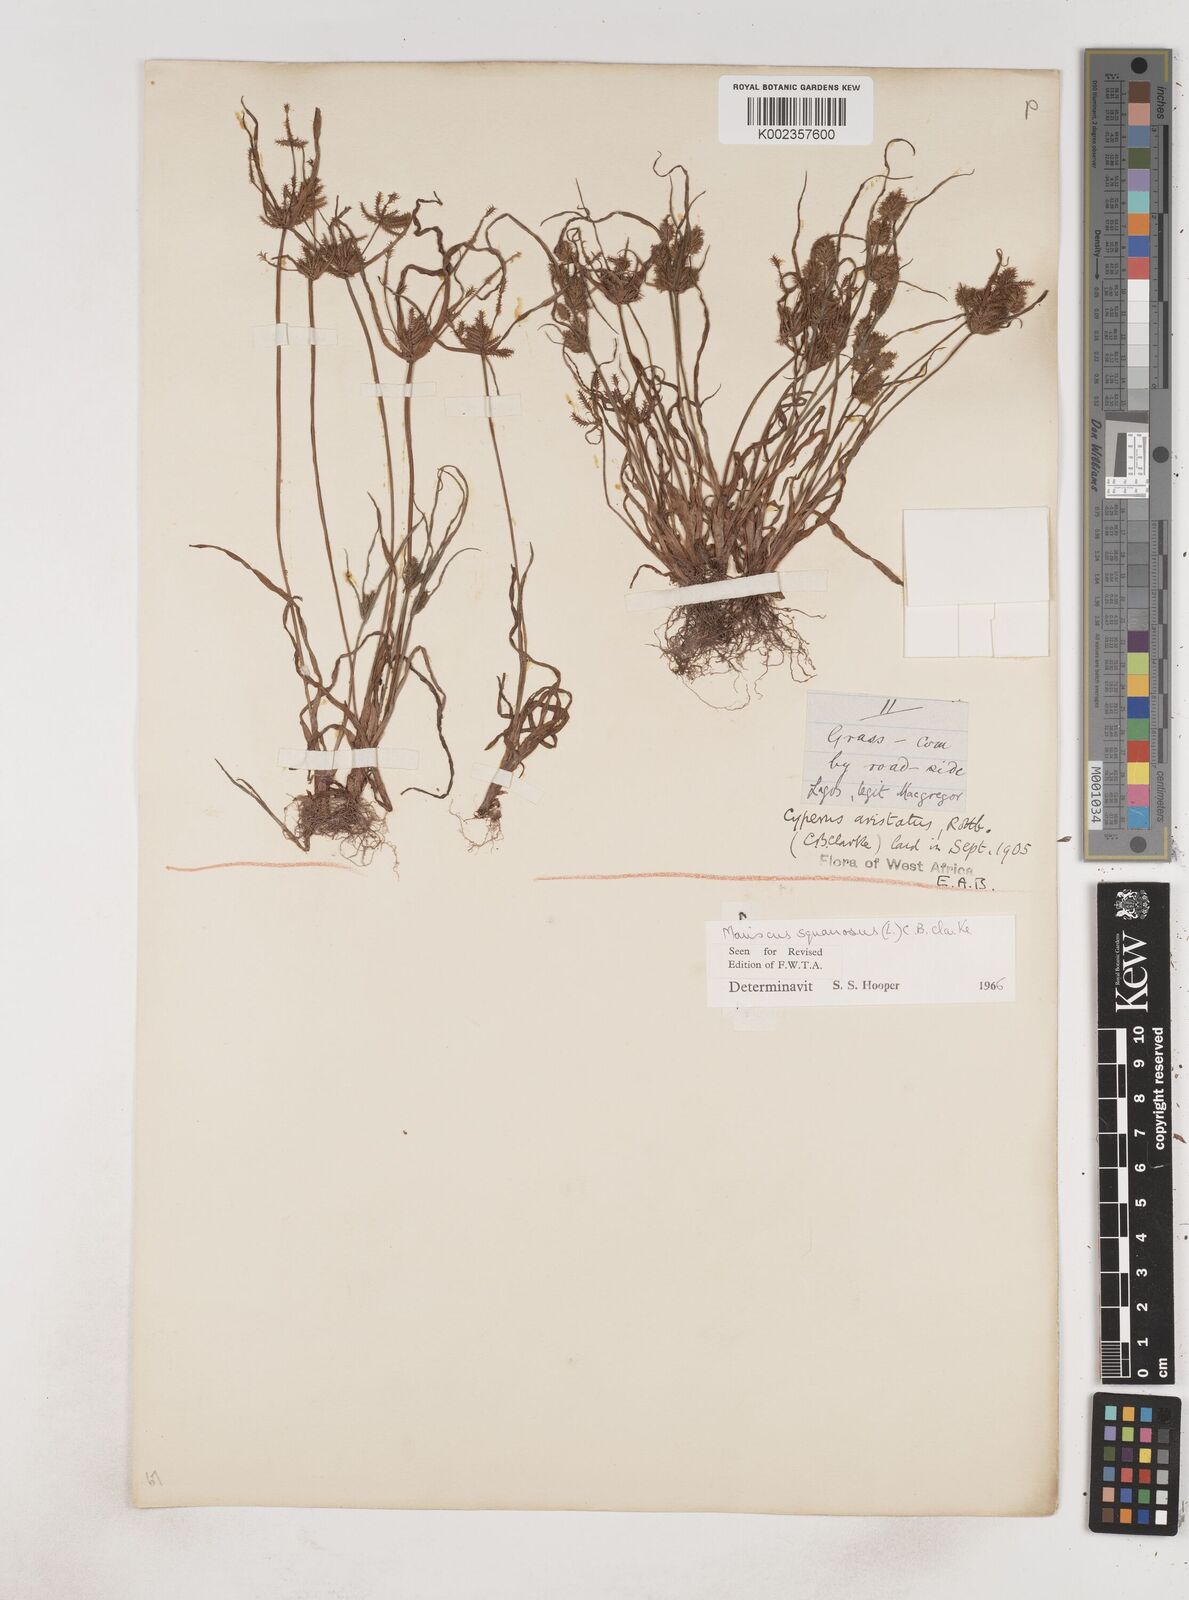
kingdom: Plantae
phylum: Tracheophyta
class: Liliopsida
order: Poales
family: Cyperaceae
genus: Cyperus
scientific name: Cyperus squarrosus
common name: Awned cyperus
